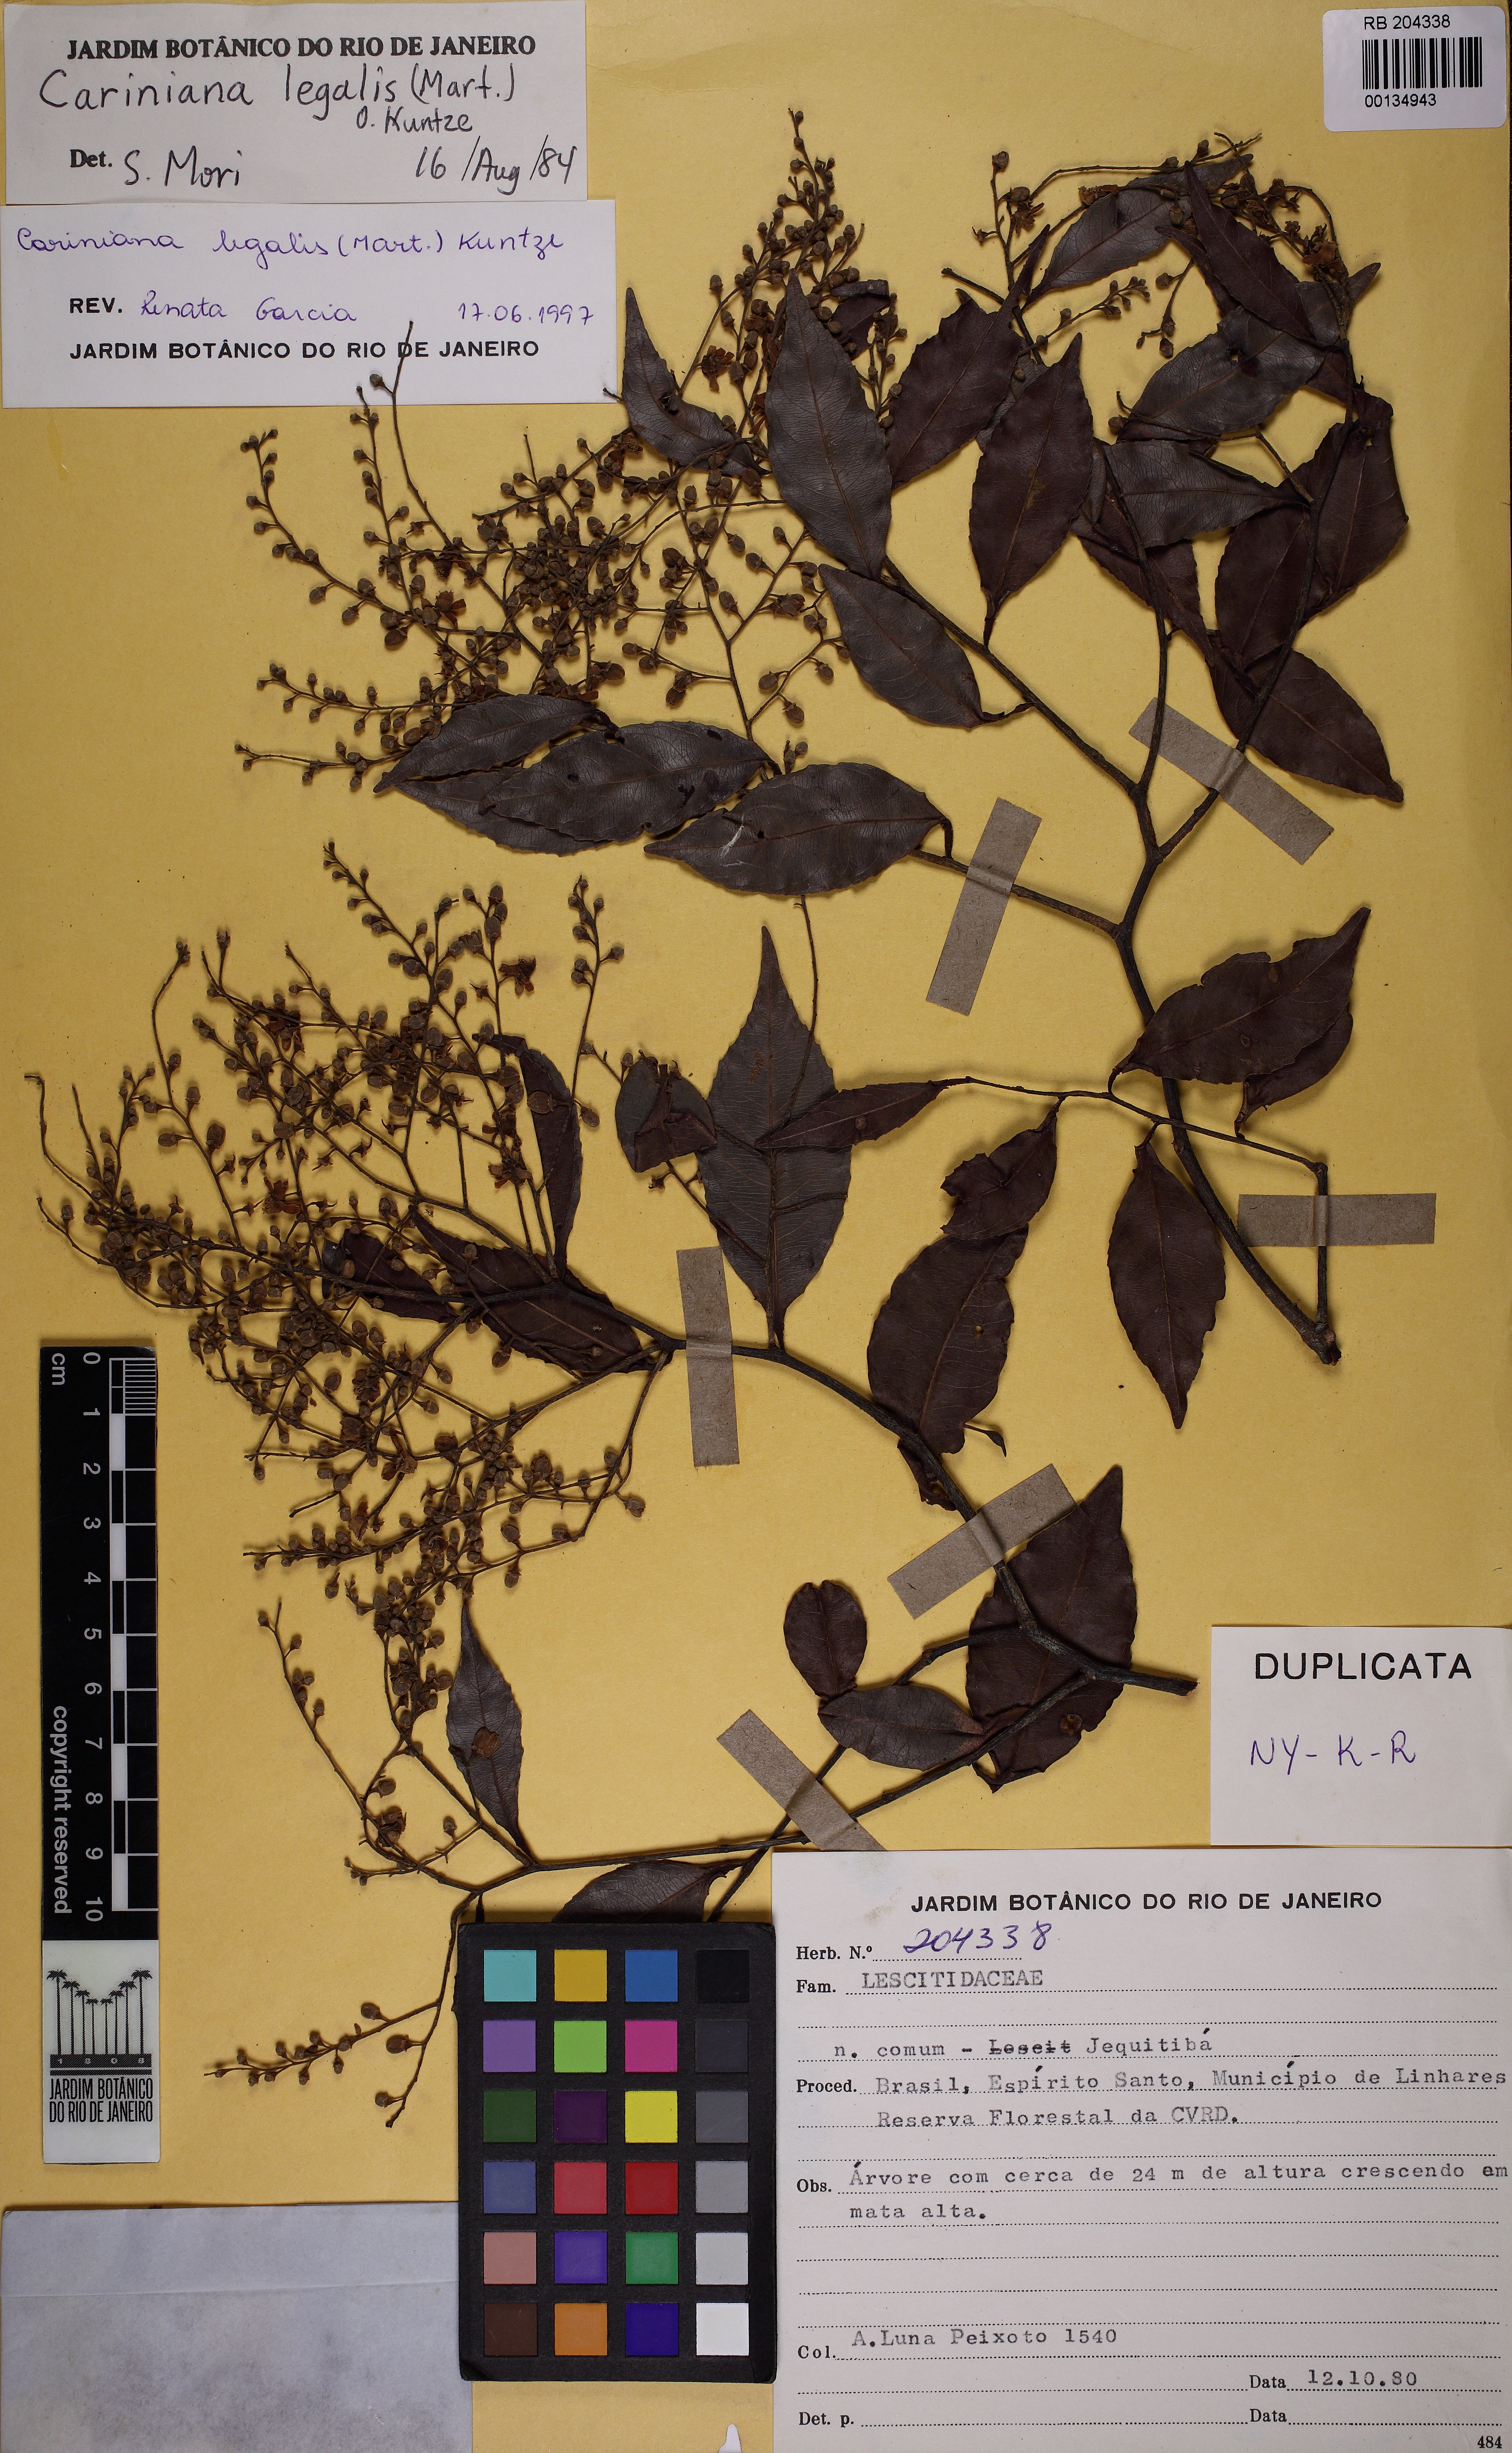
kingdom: Plantae
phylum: Tracheophyta
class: Magnoliopsida
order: Ericales
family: Lecythidaceae
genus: Cariniana
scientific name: Cariniana legalis
